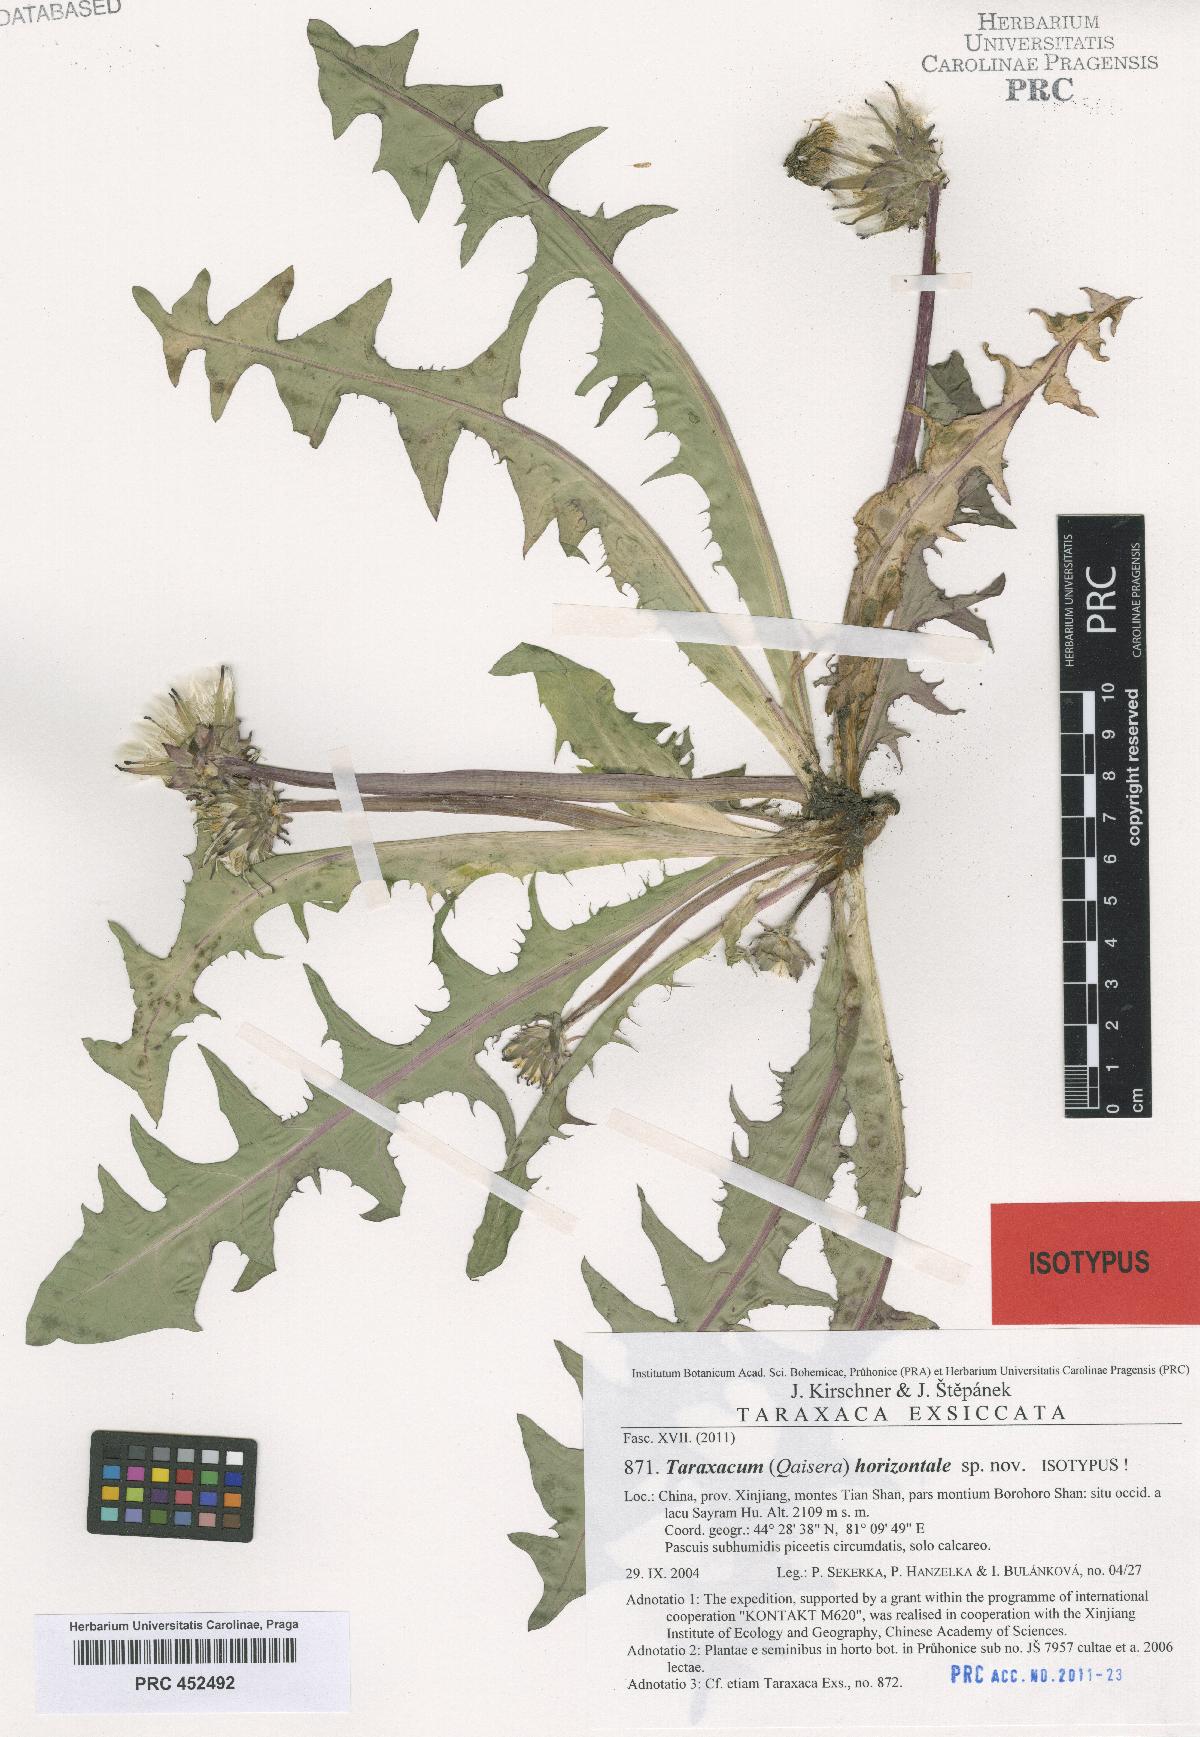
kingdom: Plantae
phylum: Tracheophyta
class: Magnoliopsida
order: Asterales
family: Asteraceae
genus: Taraxacum
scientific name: Taraxacum horizontale
